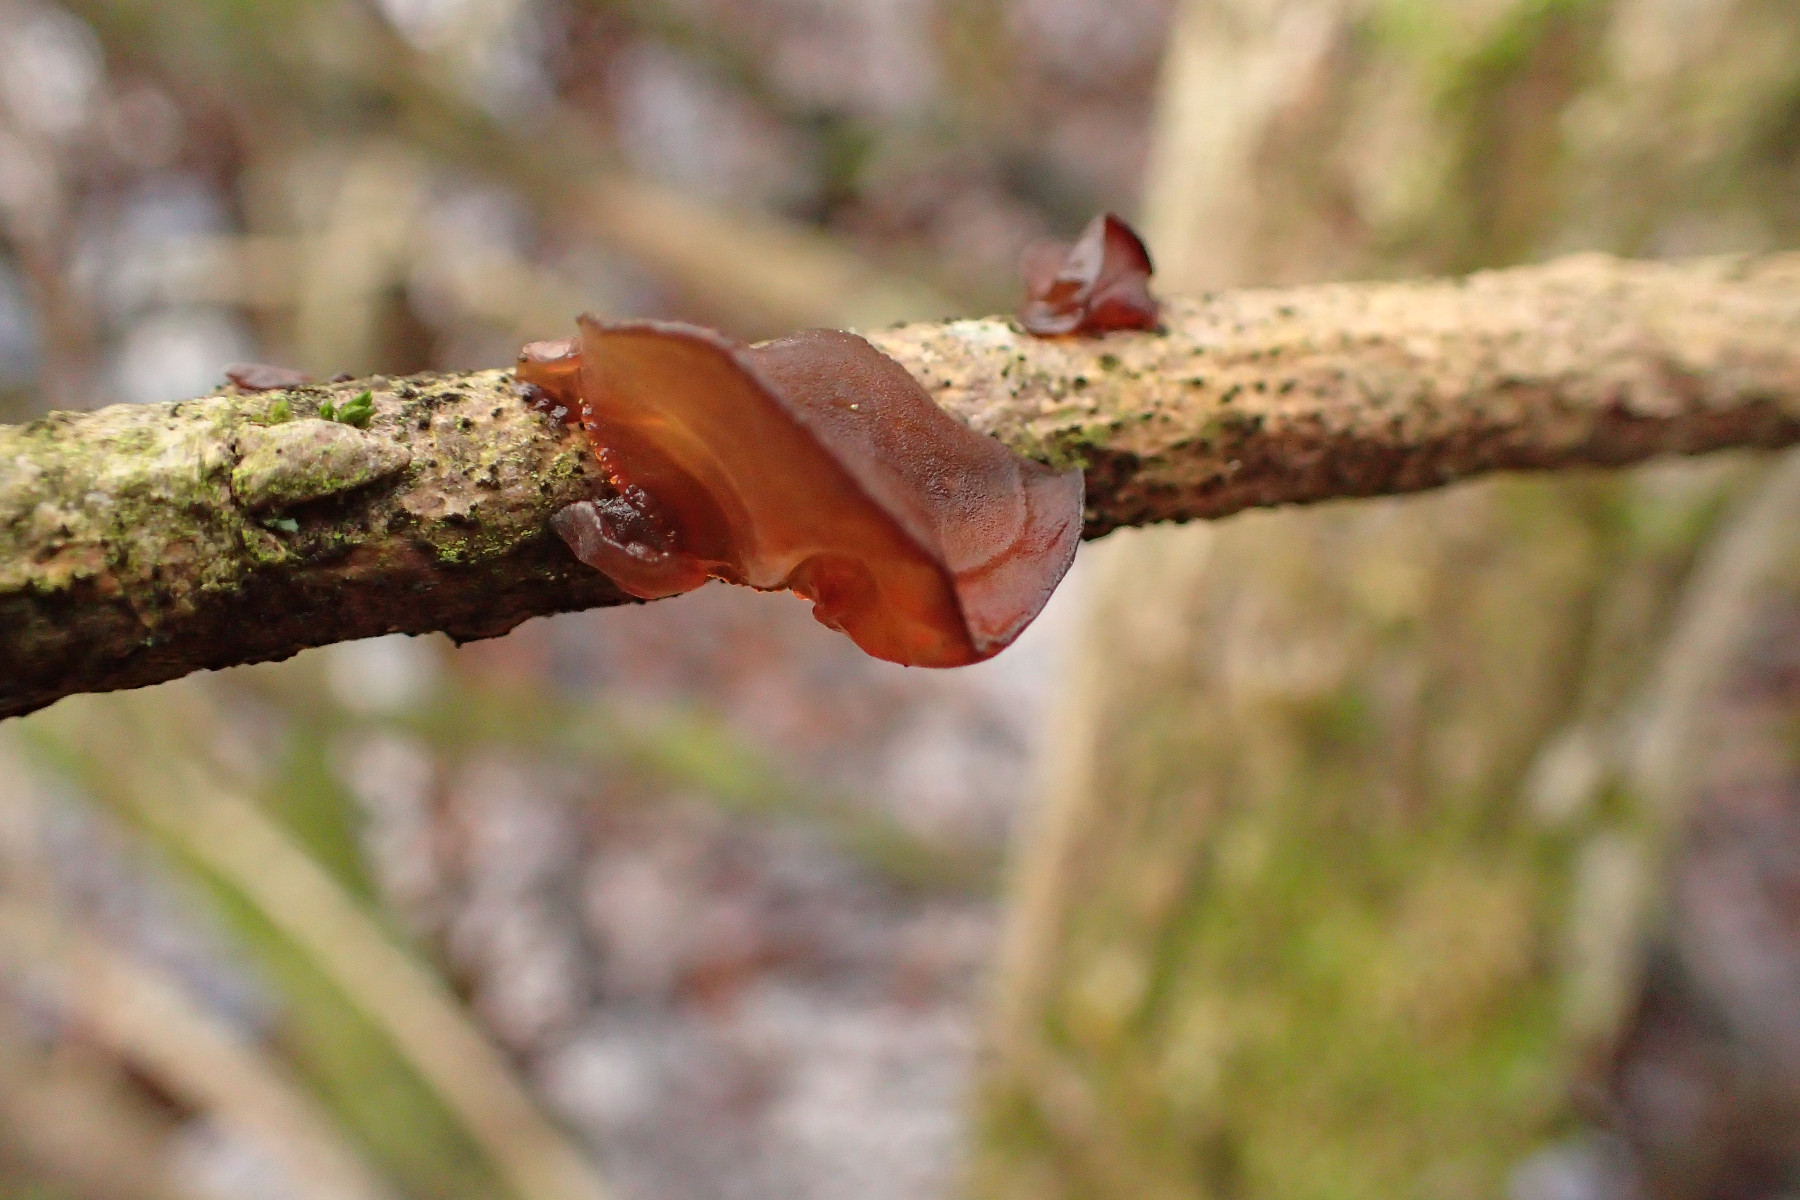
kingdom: Fungi
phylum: Basidiomycota
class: Agaricomycetes
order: Auriculariales
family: Auriculariaceae
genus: Exidia
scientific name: Exidia recisa
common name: pile-bævretop
